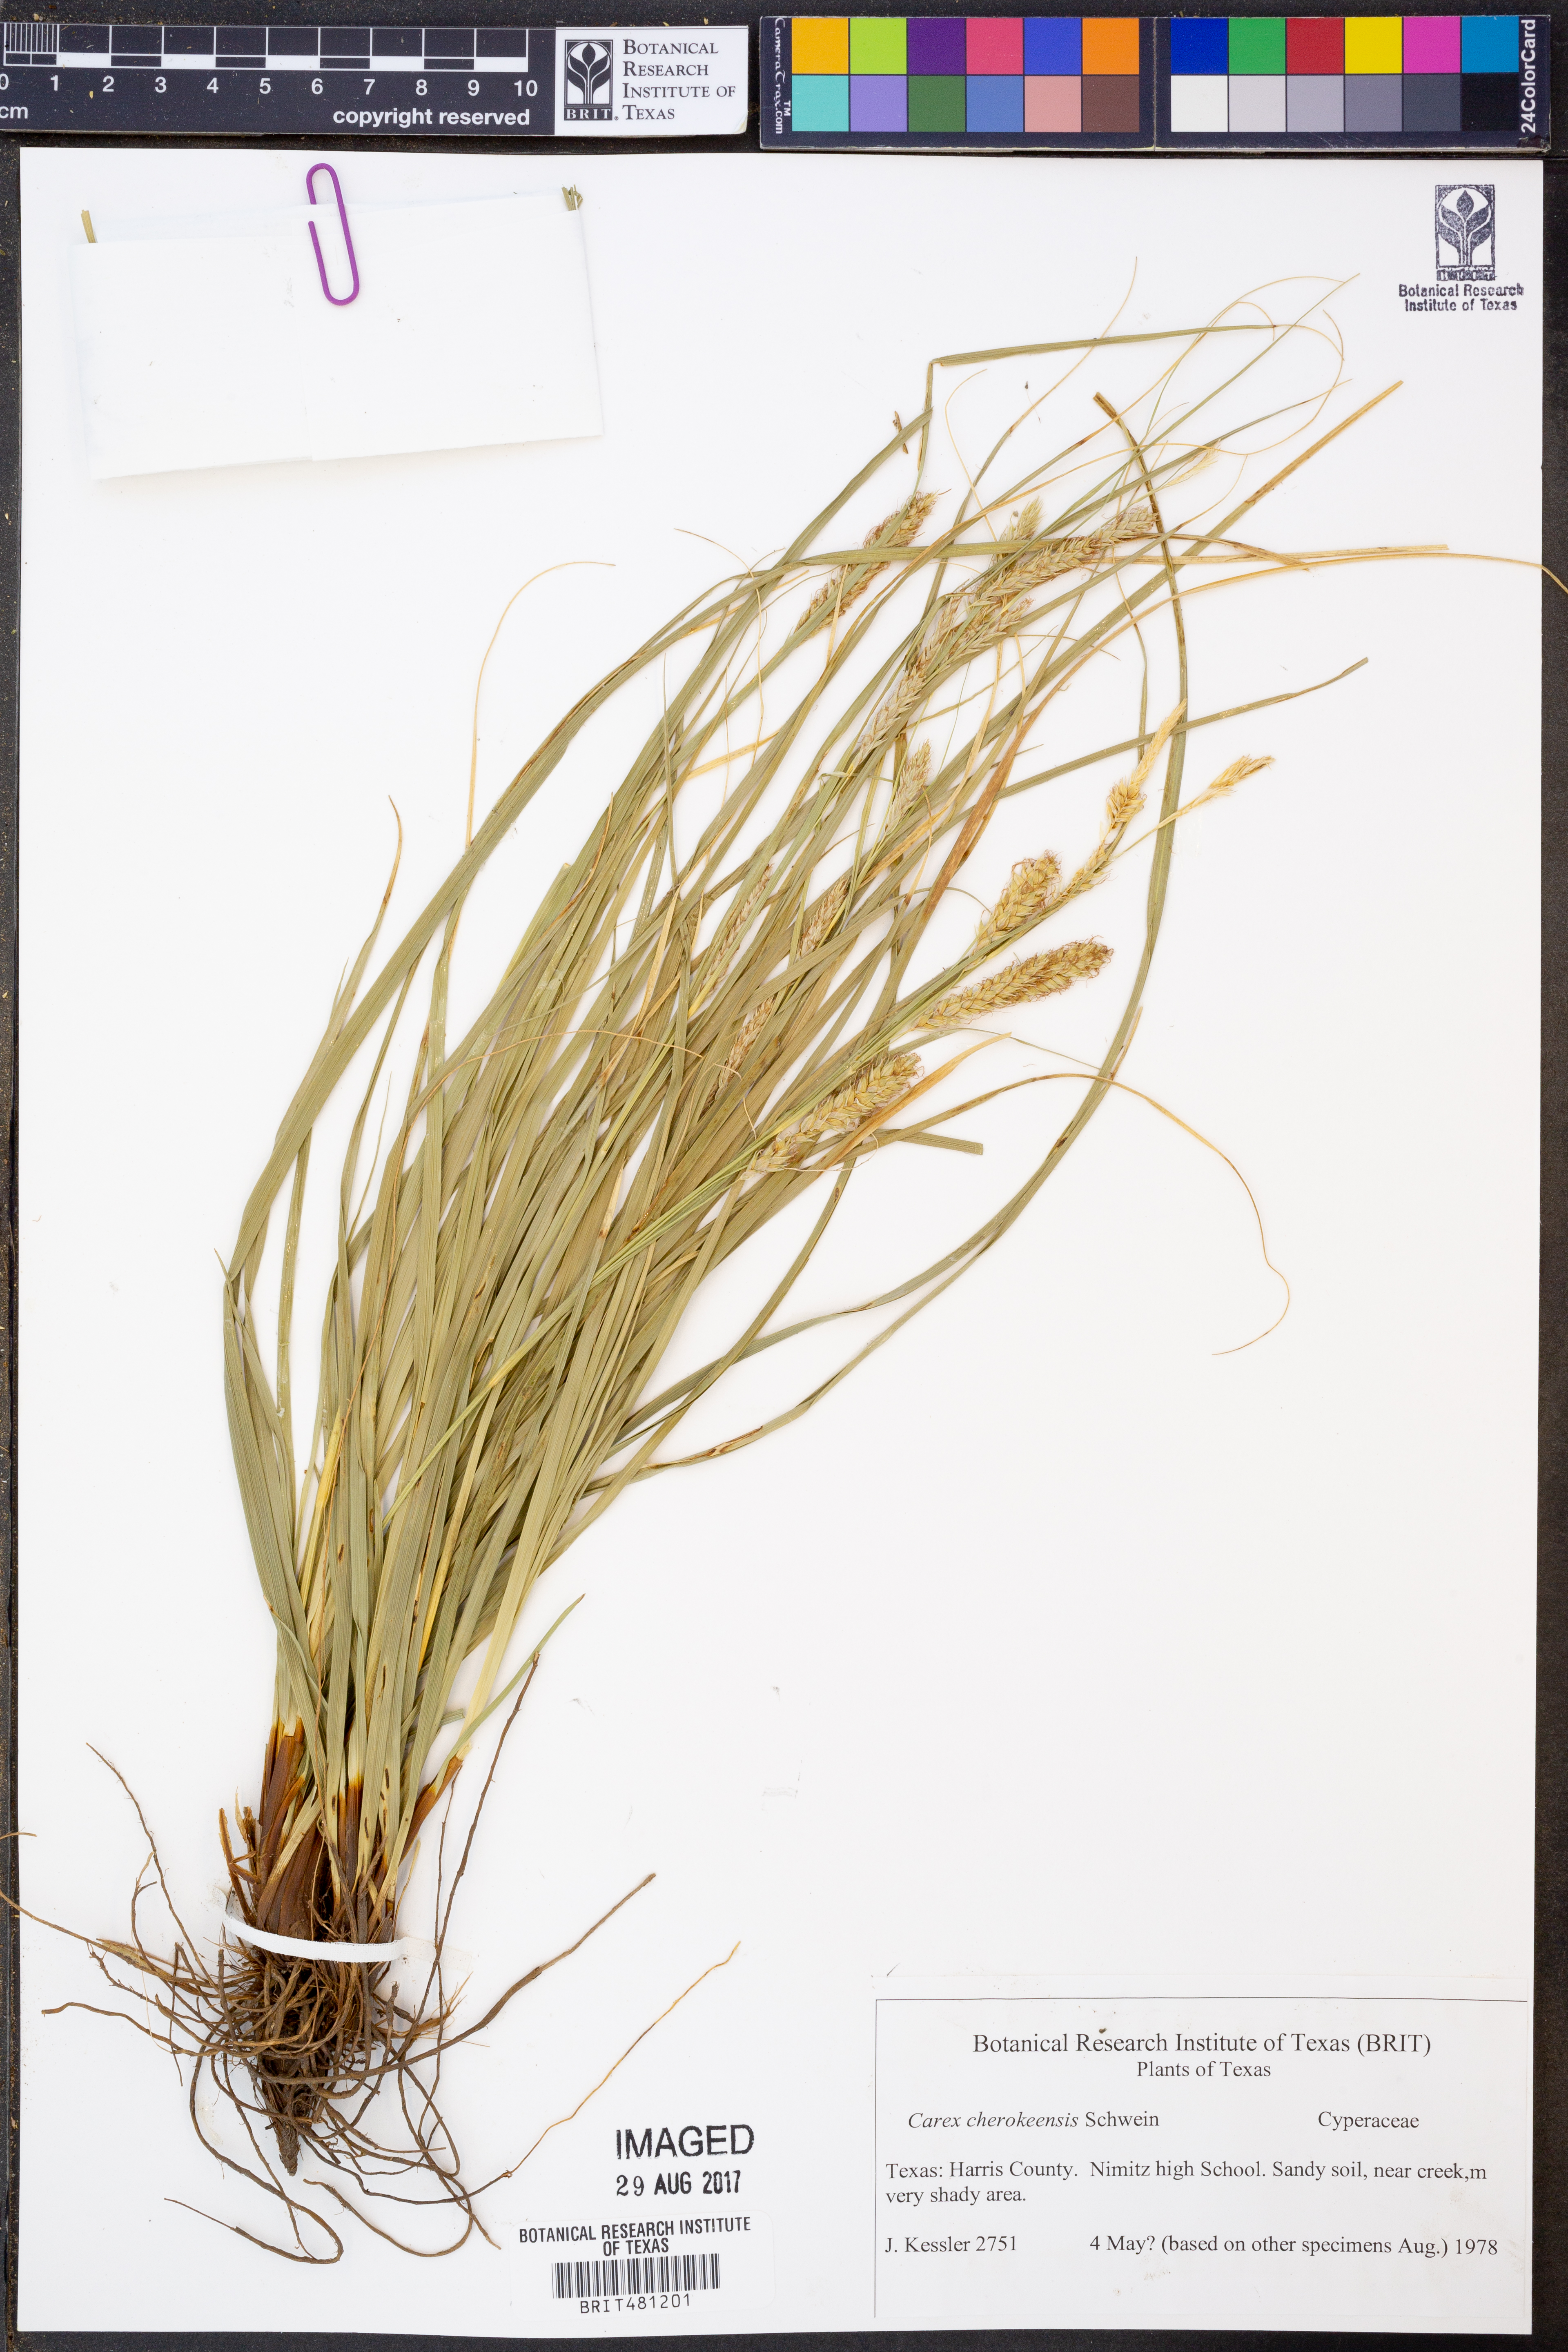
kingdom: Plantae
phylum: Tracheophyta
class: Liliopsida
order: Poales
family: Cyperaceae
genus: Carex
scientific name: Carex cherokeensis
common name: Cherokee sedge
